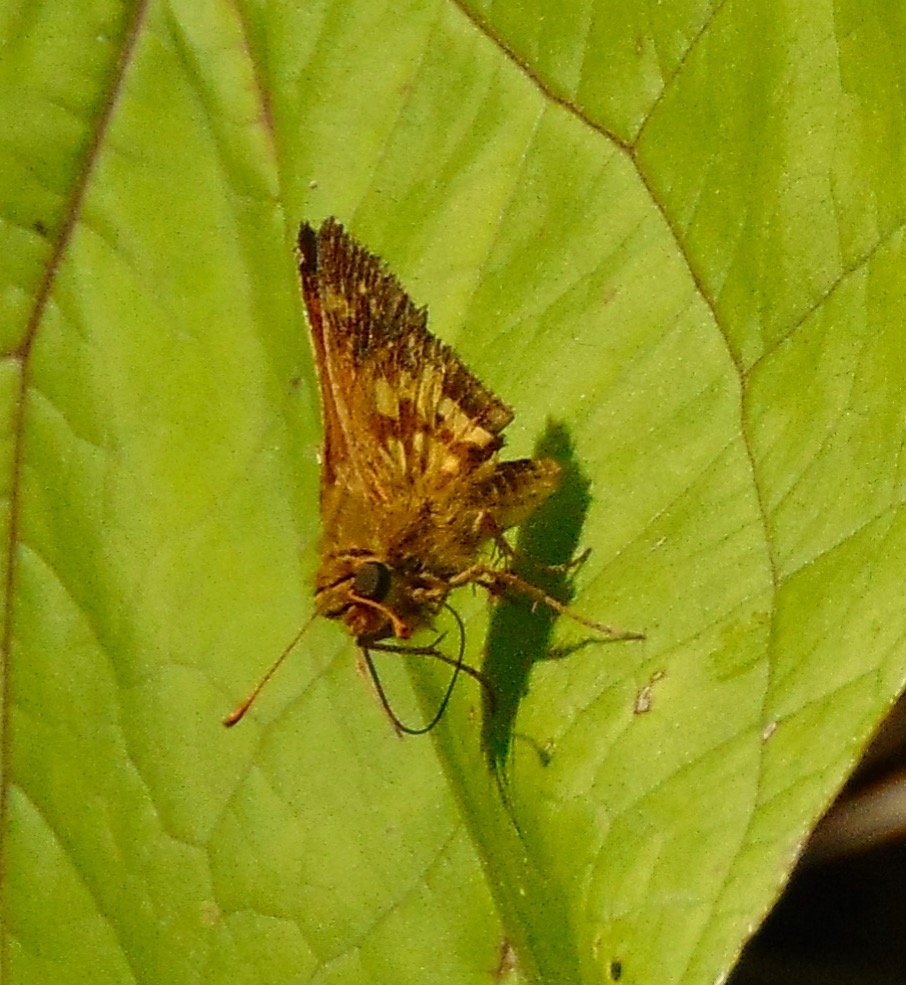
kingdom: Animalia
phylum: Arthropoda
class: Insecta
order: Lepidoptera
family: Hesperiidae
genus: Polites
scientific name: Polites coras
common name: Peck's Skipper
